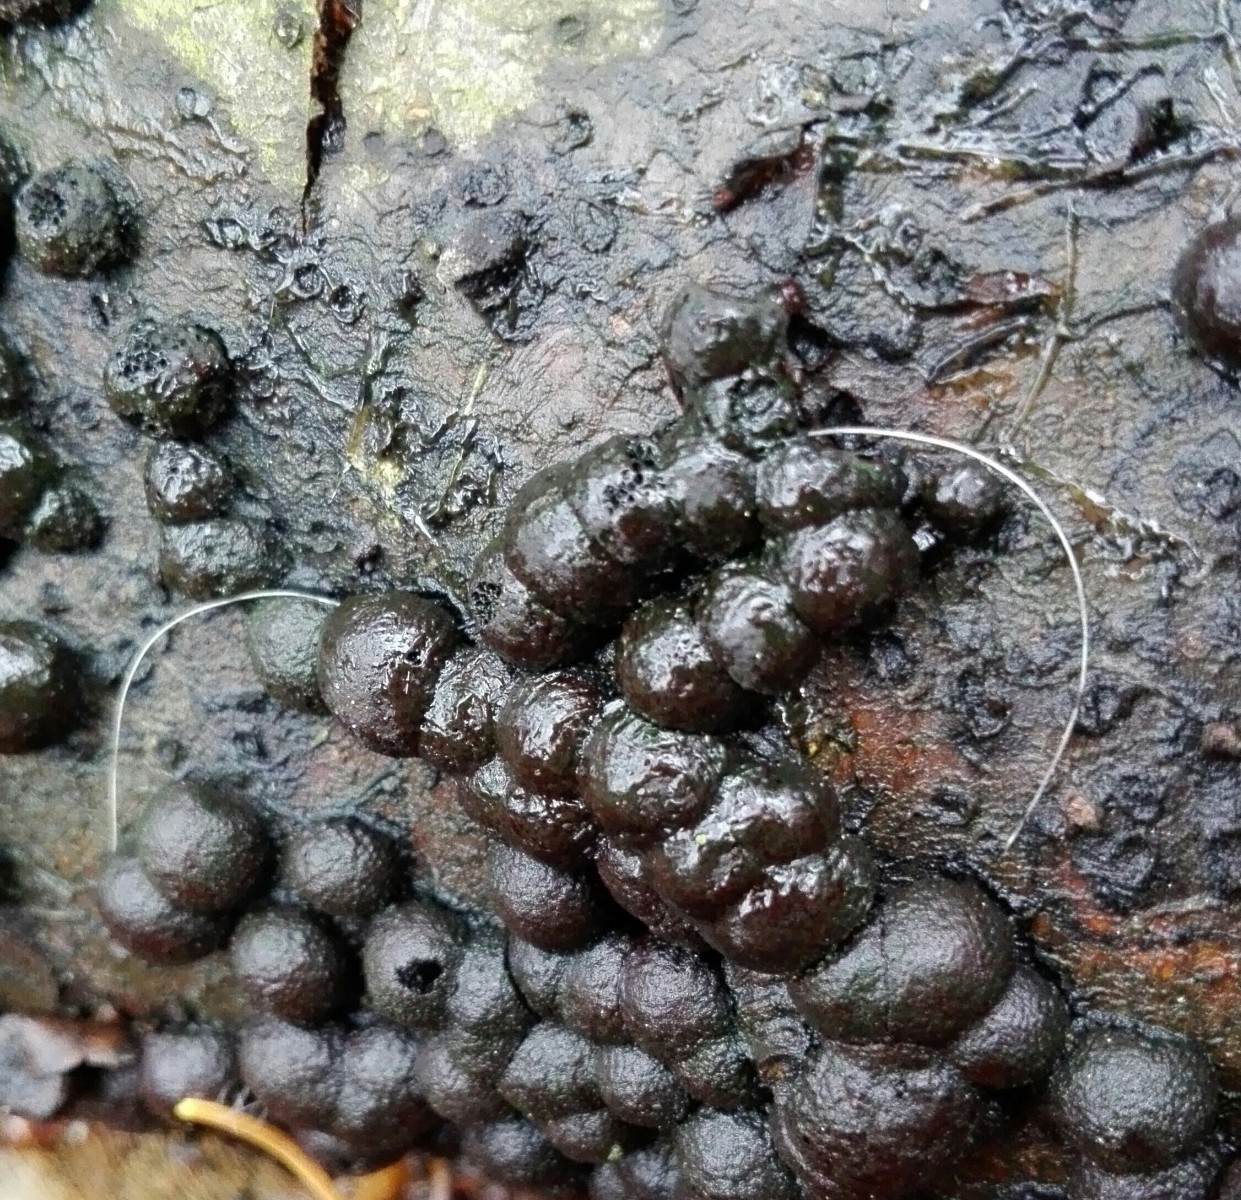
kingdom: Fungi
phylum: Ascomycota
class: Sordariomycetes
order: Xylariales
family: Hypoxylaceae
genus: Hypoxylon
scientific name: Hypoxylon howeanum
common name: halvkugleformet kulbær
